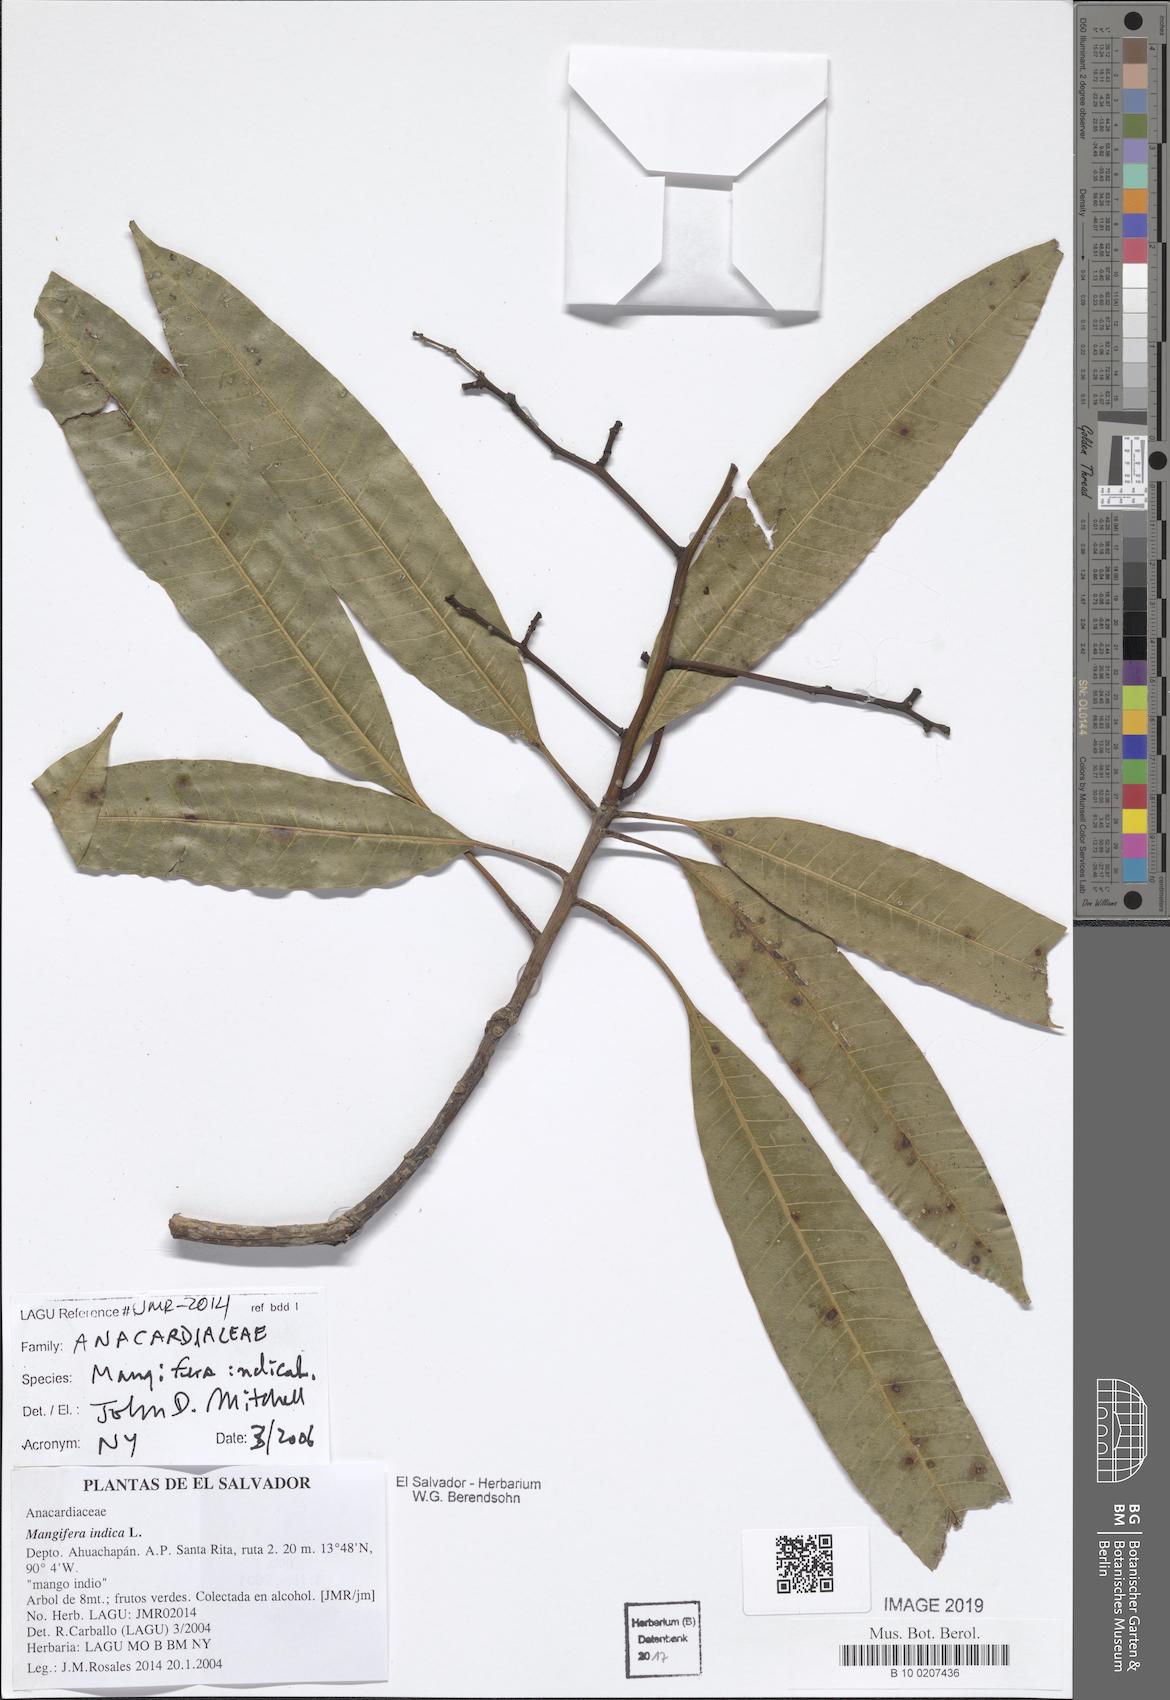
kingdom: Plantae
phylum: Tracheophyta
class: Magnoliopsida
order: Sapindales
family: Anacardiaceae
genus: Mangifera
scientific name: Mangifera indica
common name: Mango
